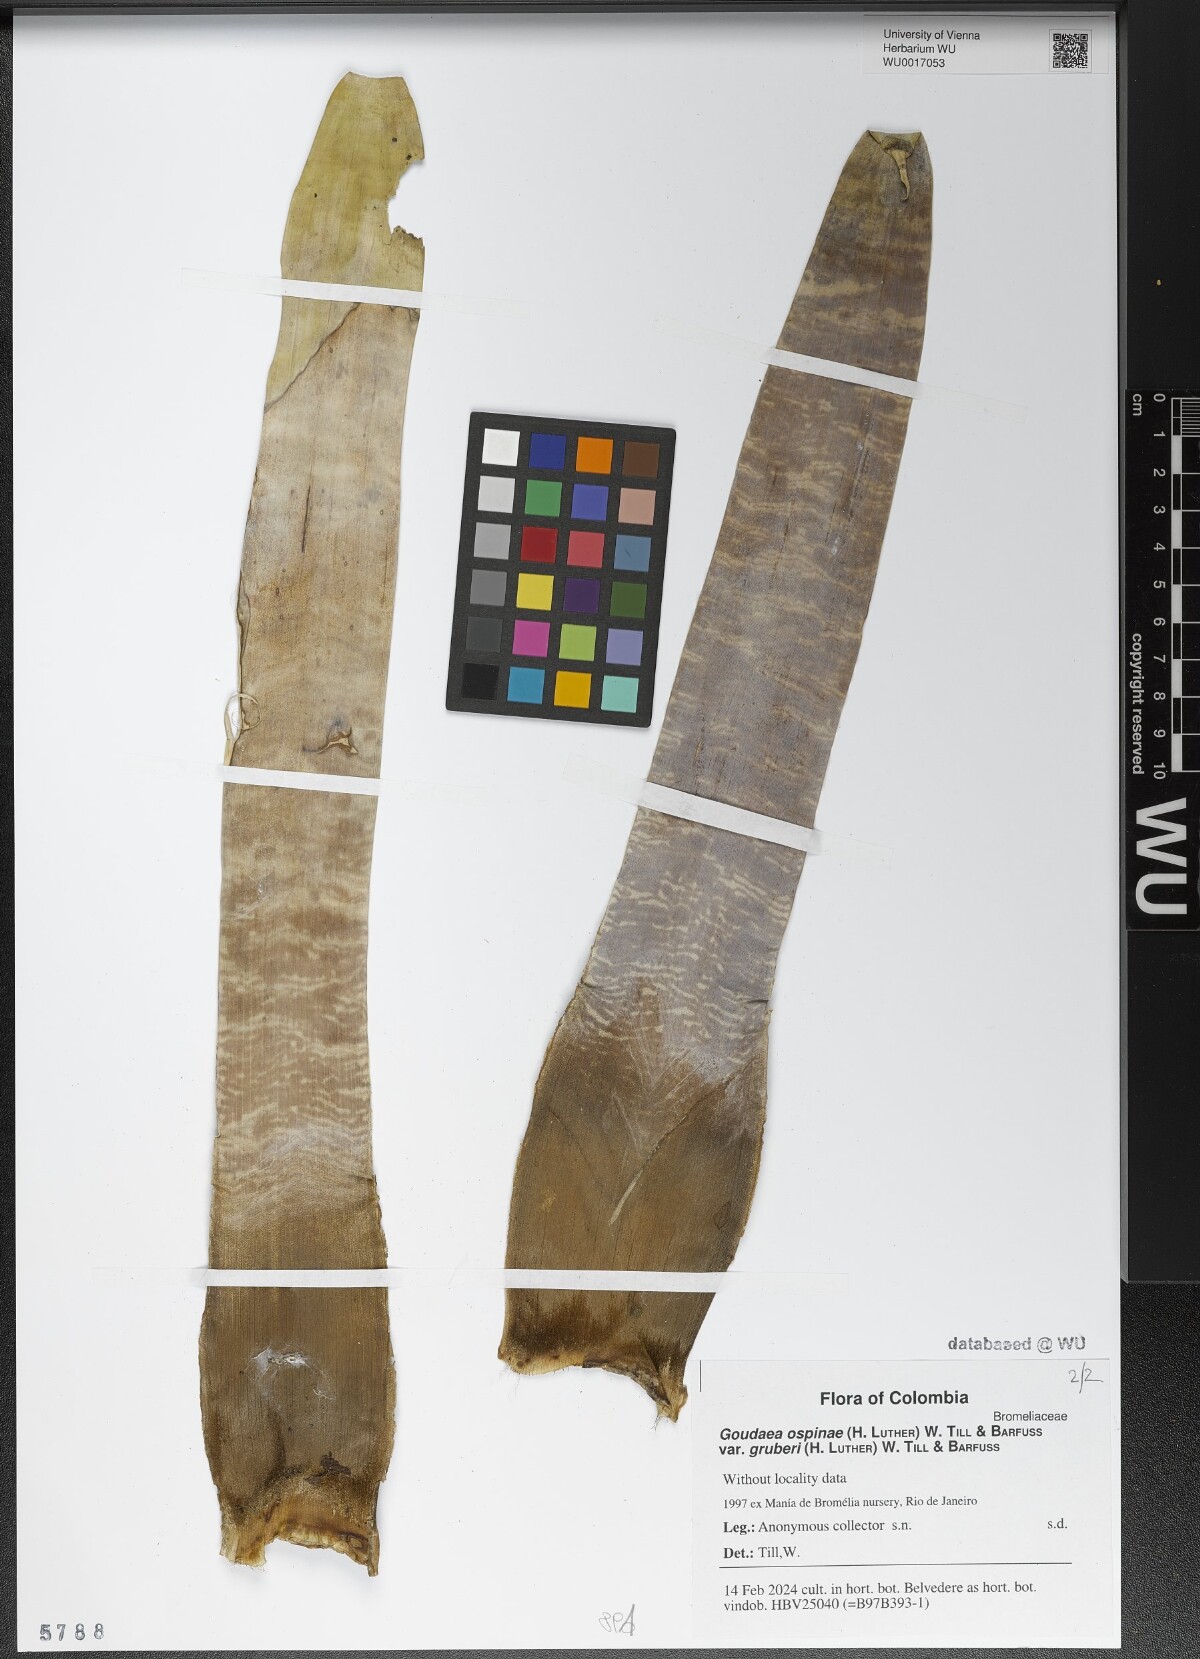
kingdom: Plantae
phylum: Tracheophyta
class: Liliopsida
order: Poales
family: Bromeliaceae
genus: Goudaea
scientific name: Goudaea ospinae
